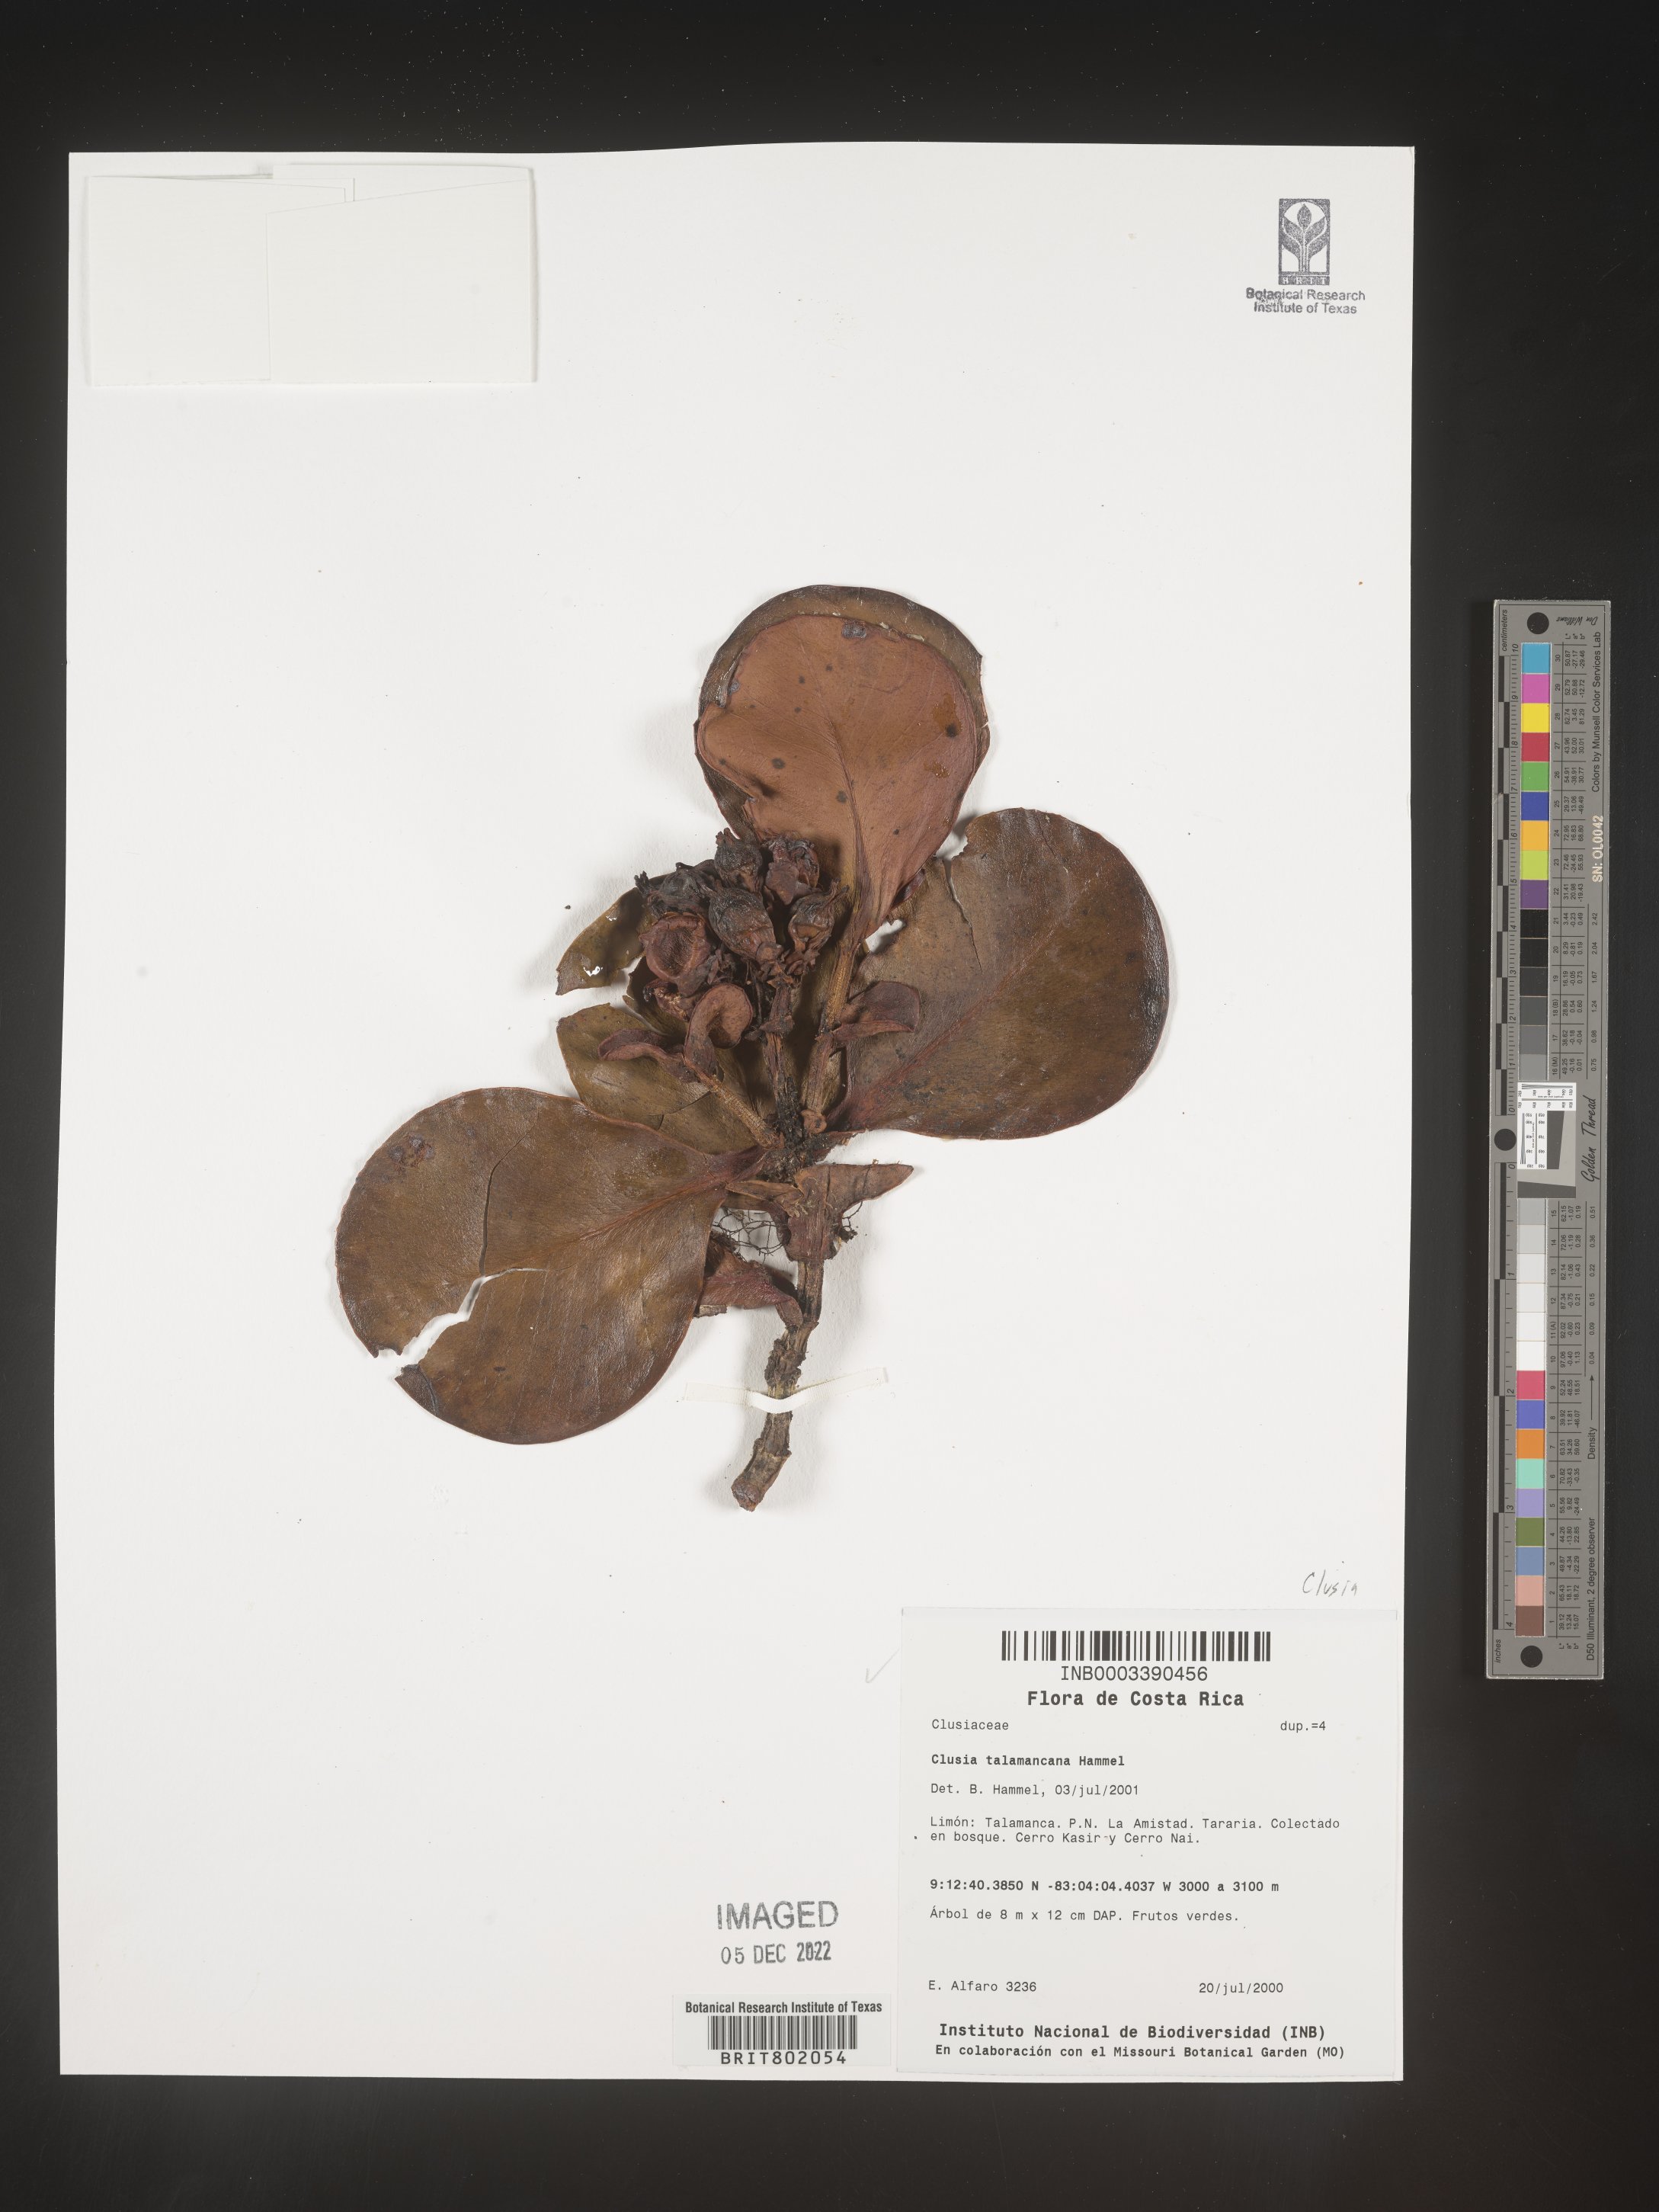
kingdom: Plantae
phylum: Tracheophyta
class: Magnoliopsida
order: Malpighiales
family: Clusiaceae
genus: Clusia
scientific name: Clusia
